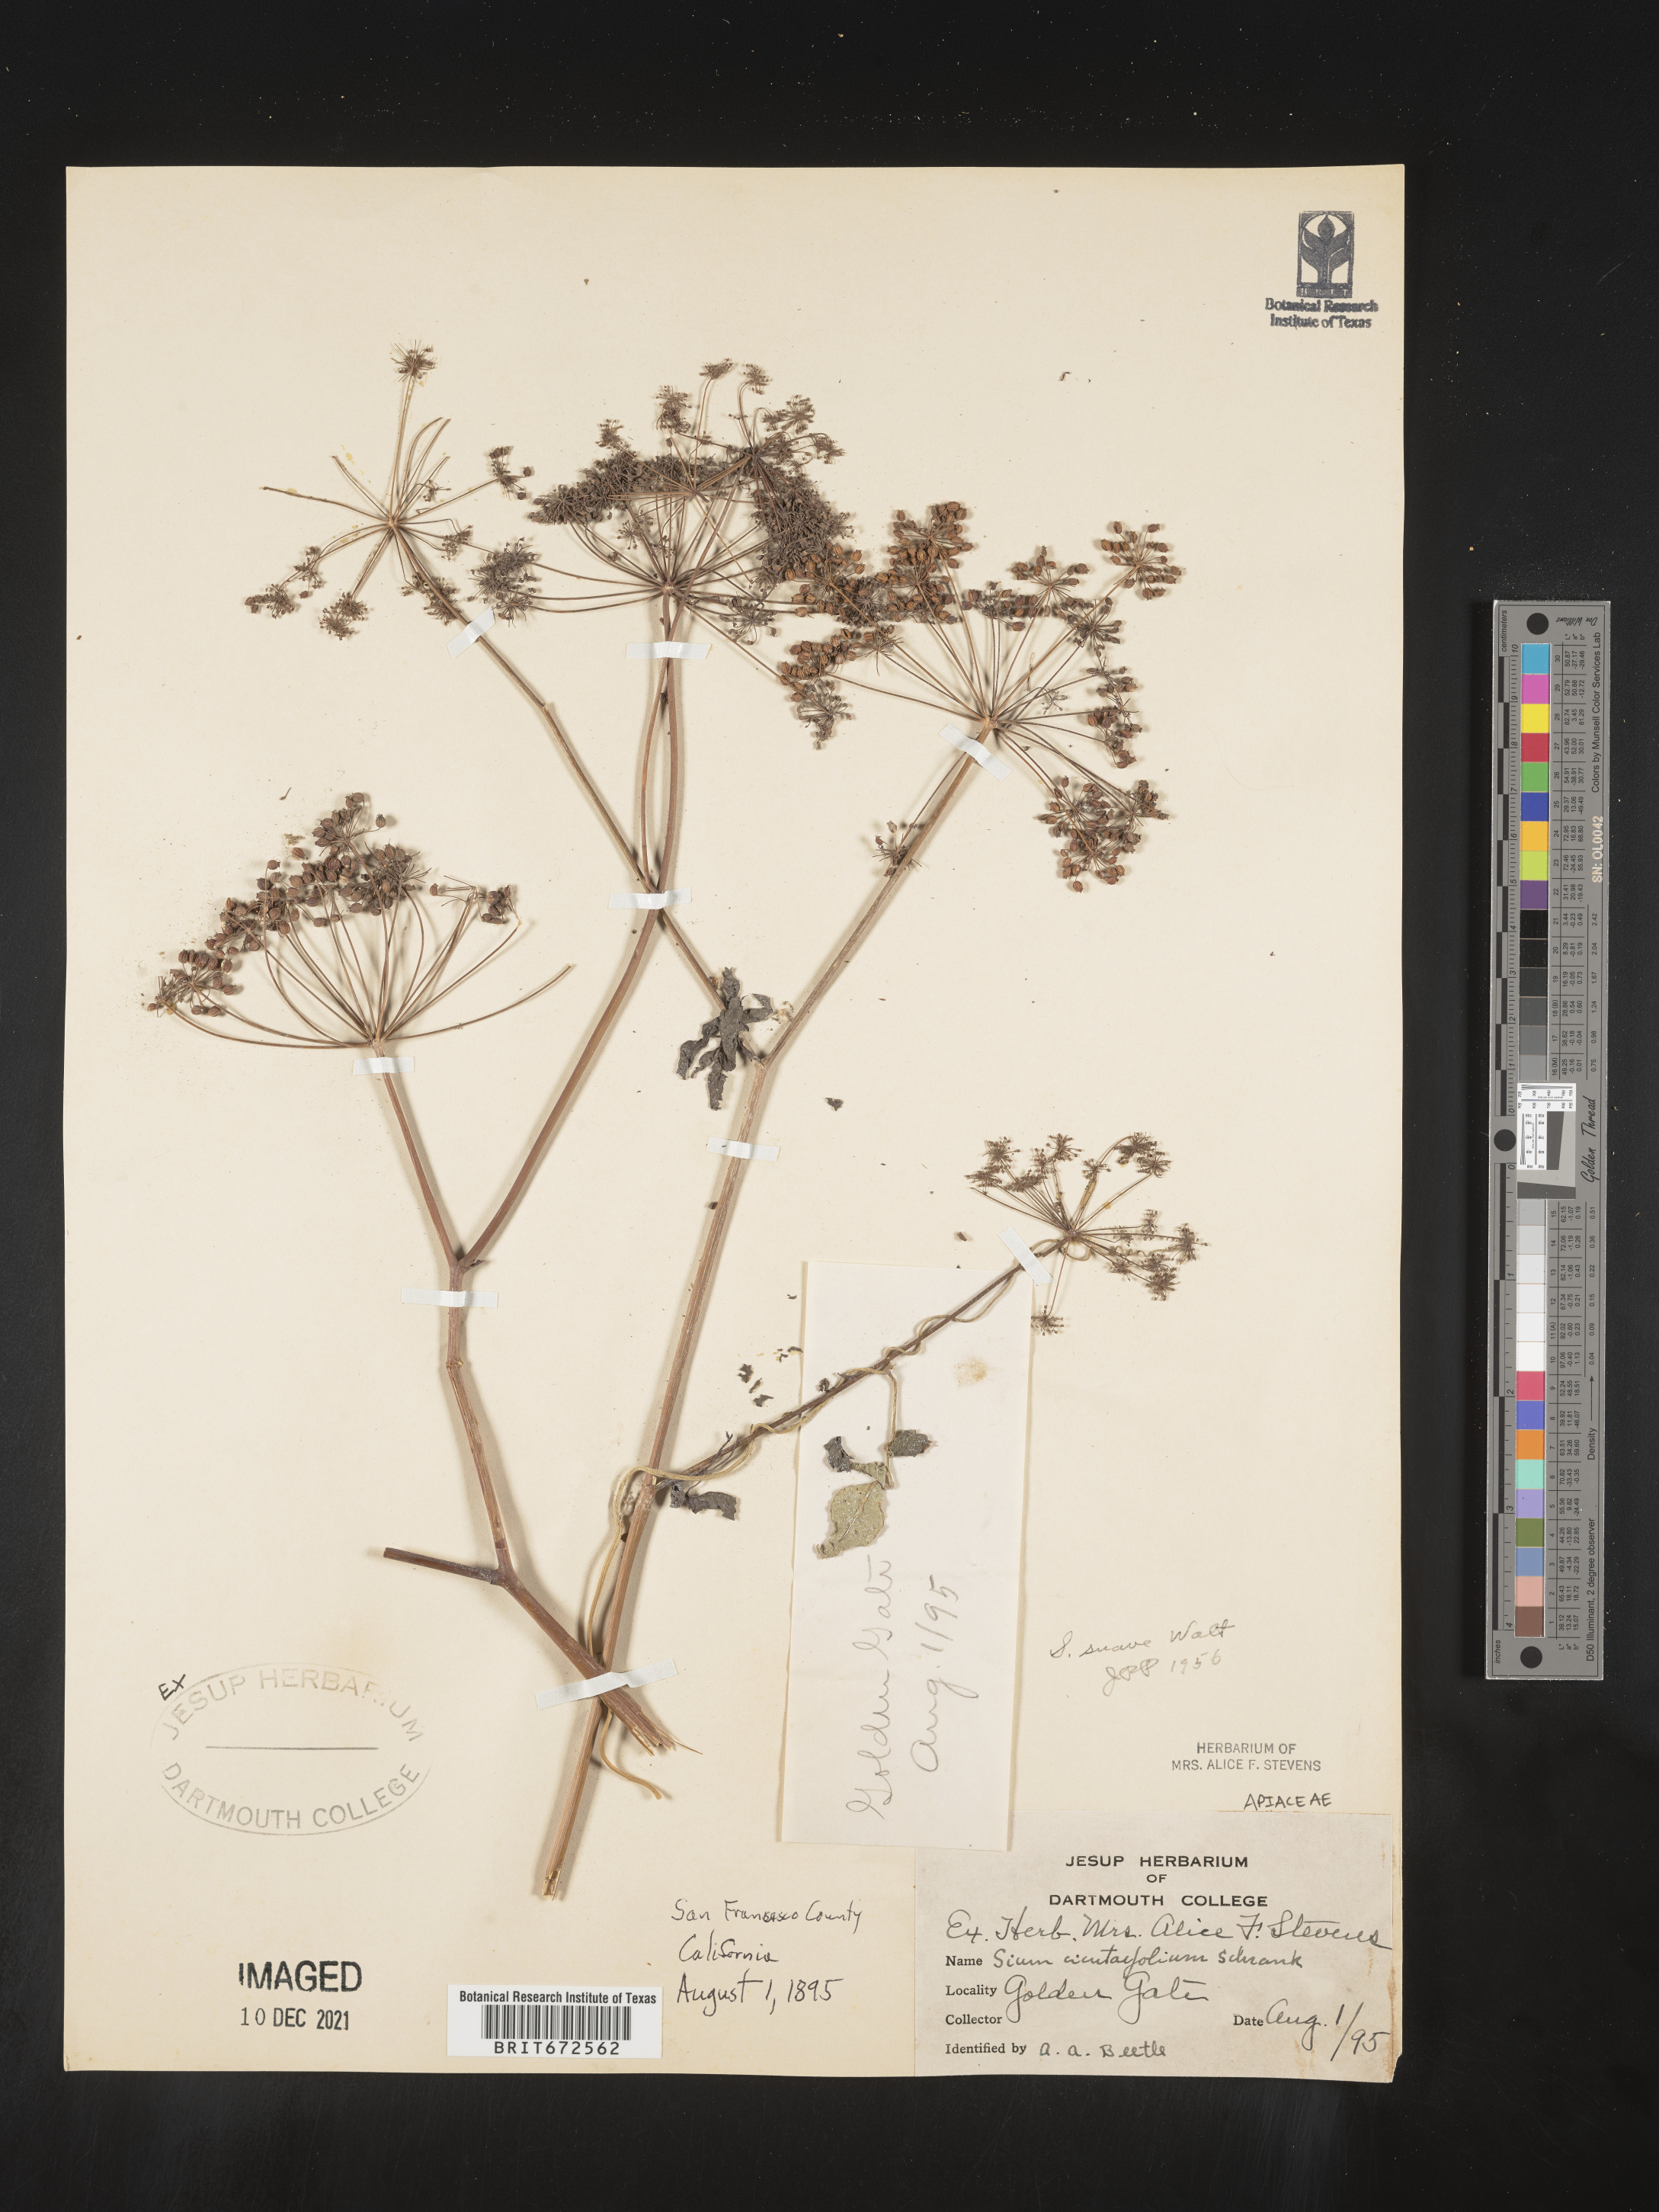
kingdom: Plantae
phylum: Tracheophyta
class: Magnoliopsida
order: Apiales
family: Apiaceae
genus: Sium
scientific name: Sium suave
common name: Hemlock water-parsnip
